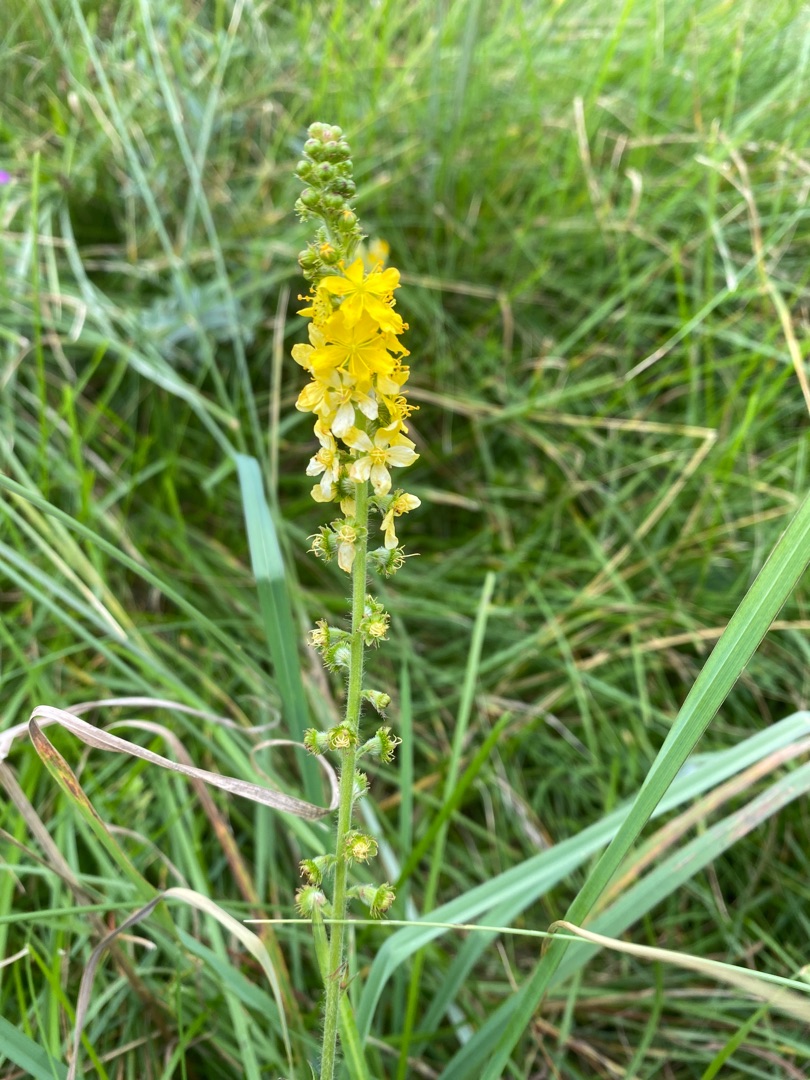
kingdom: Plantae
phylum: Tracheophyta
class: Magnoliopsida
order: Rosales
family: Rosaceae
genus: Agrimonia
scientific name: Agrimonia eupatoria
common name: Almindelig agermåne
